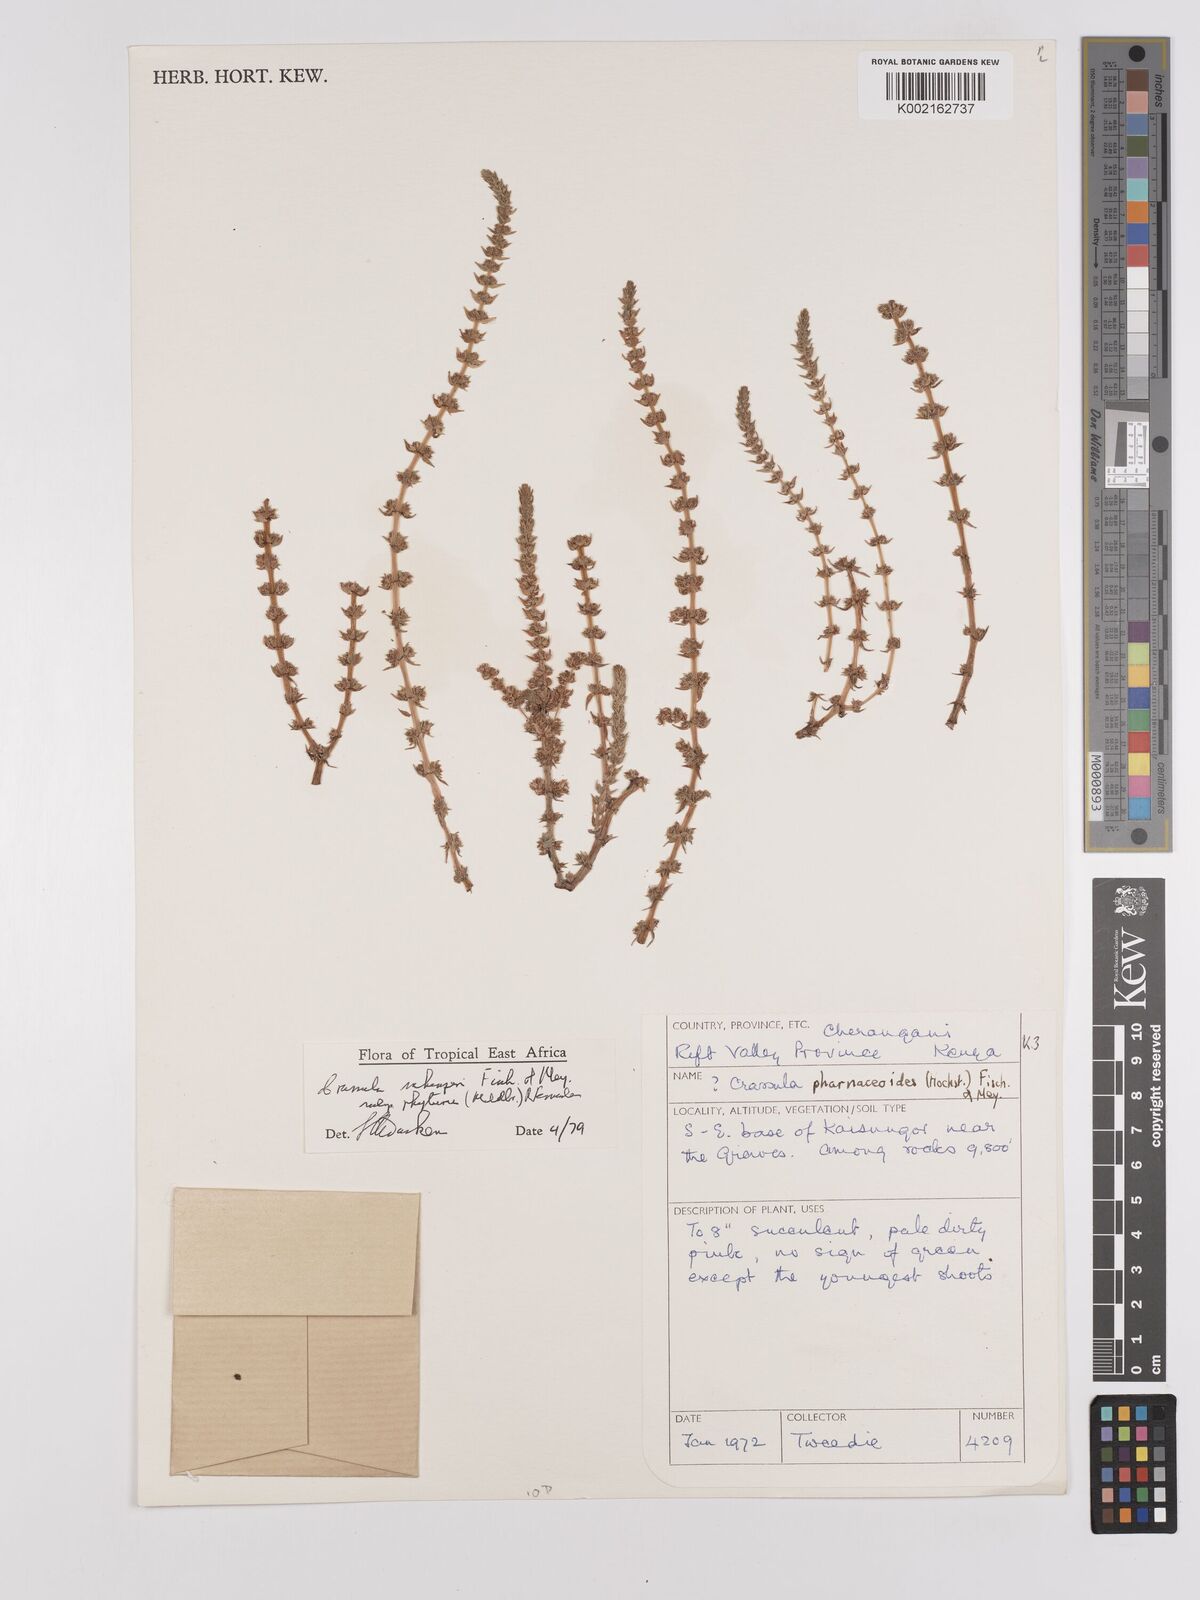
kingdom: Plantae
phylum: Tracheophyta
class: Magnoliopsida
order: Saxifragales
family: Crassulaceae
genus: Crassula
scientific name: Crassula schimperi
